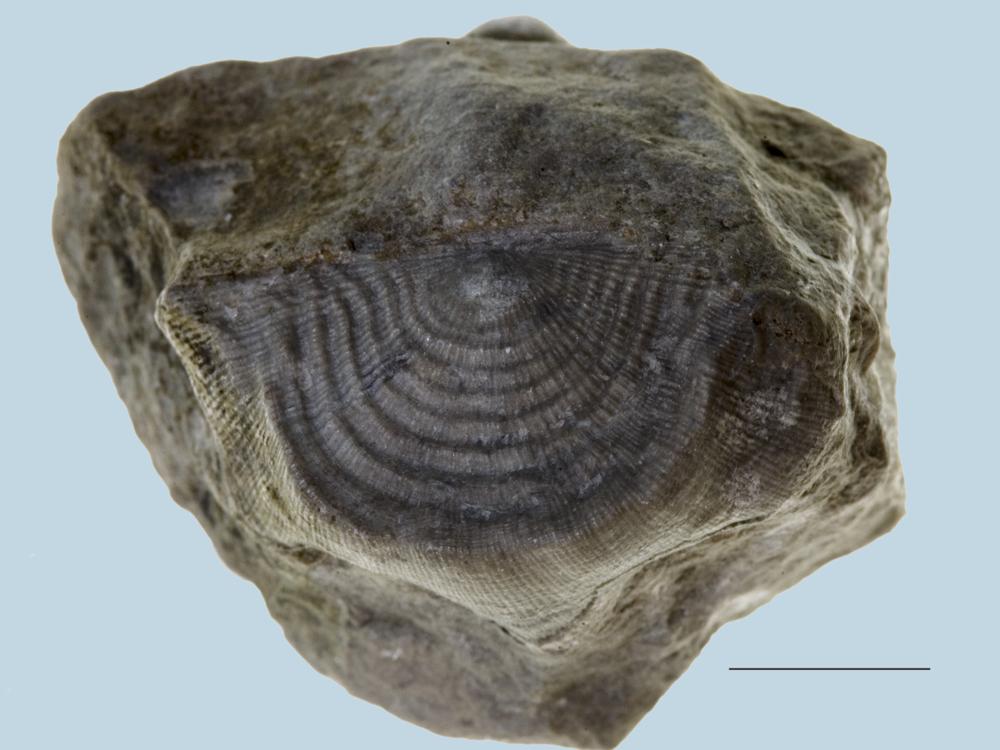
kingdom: Animalia
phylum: Brachiopoda
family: Strophomenidae
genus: Leptaena
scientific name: Leptaena
